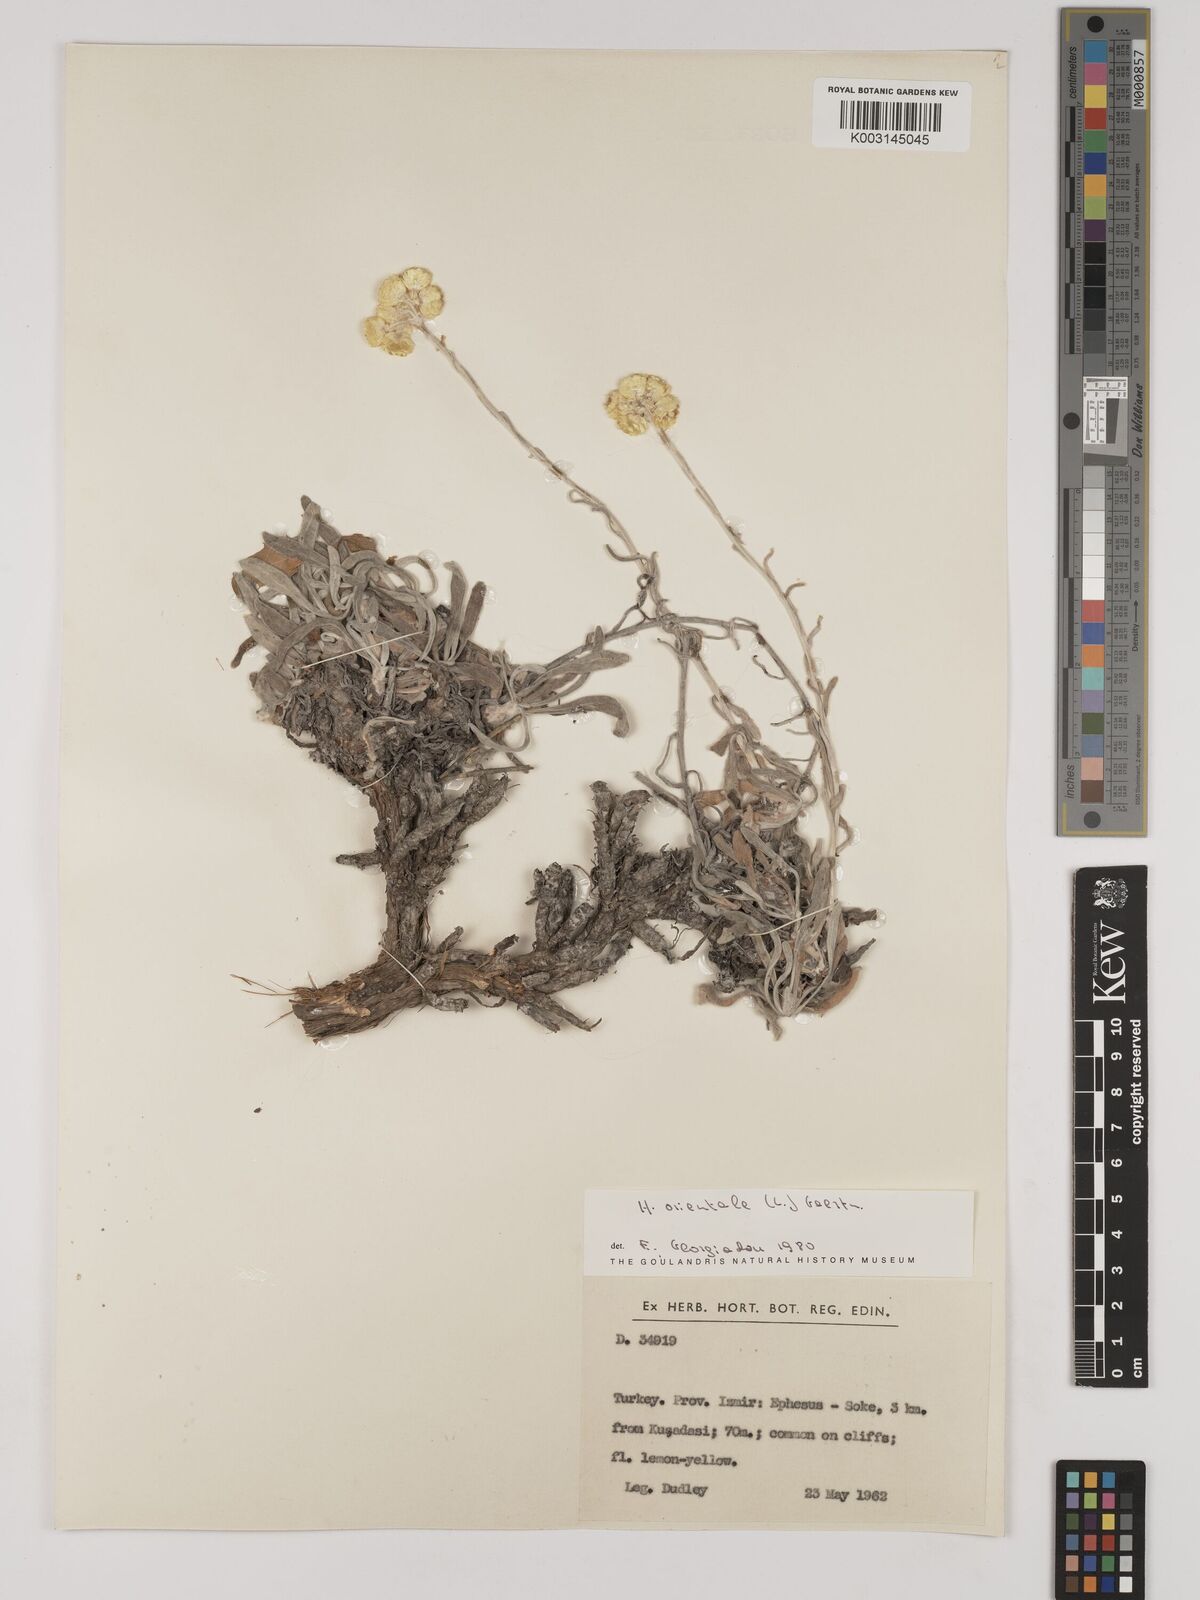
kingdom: Plantae
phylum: Tracheophyta
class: Magnoliopsida
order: Asterales
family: Asteraceae
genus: Helichrysum
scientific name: Helichrysum orientale
